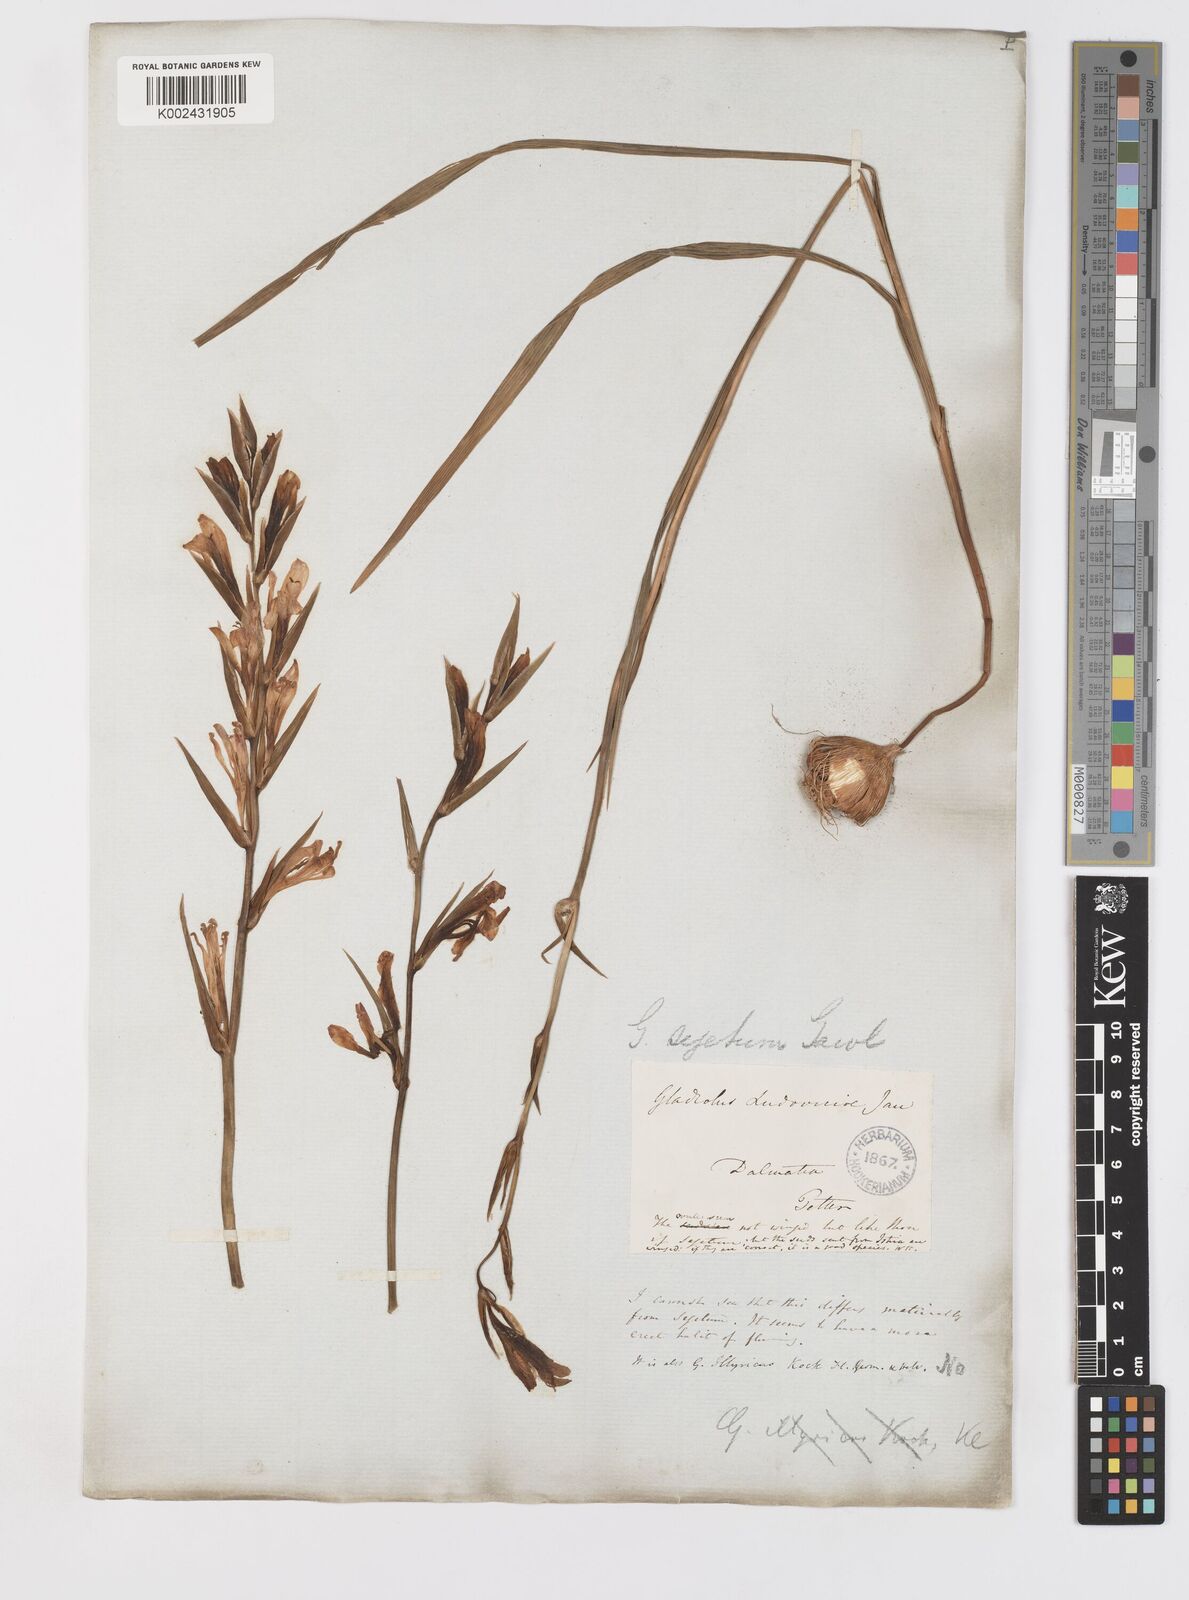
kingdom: Plantae
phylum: Tracheophyta
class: Liliopsida
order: Asparagales
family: Iridaceae
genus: Gladiolus
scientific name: Gladiolus italicus
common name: Field gladiolus
